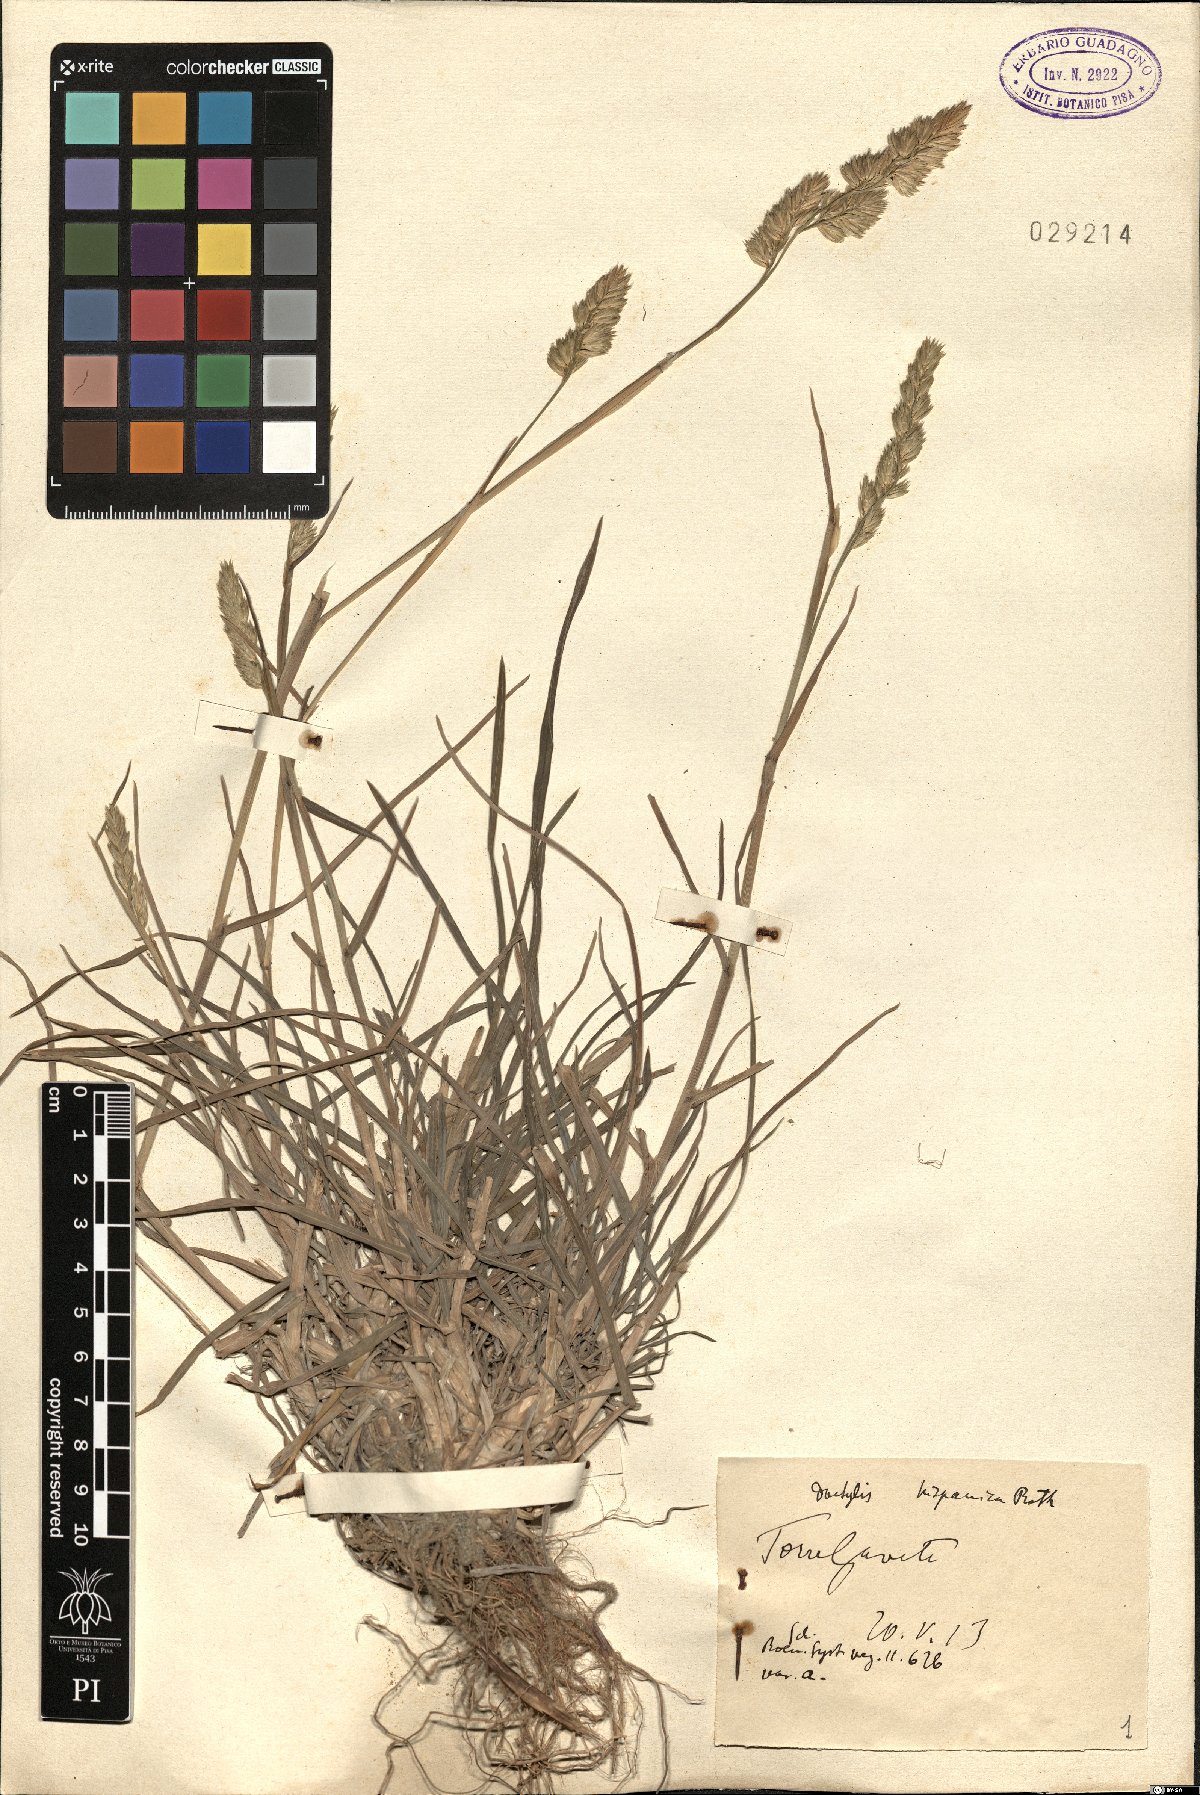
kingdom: Plantae
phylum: Tracheophyta
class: Liliopsida
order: Poales
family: Poaceae
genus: Dactylis
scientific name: Dactylis glomerata
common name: Orchardgrass
